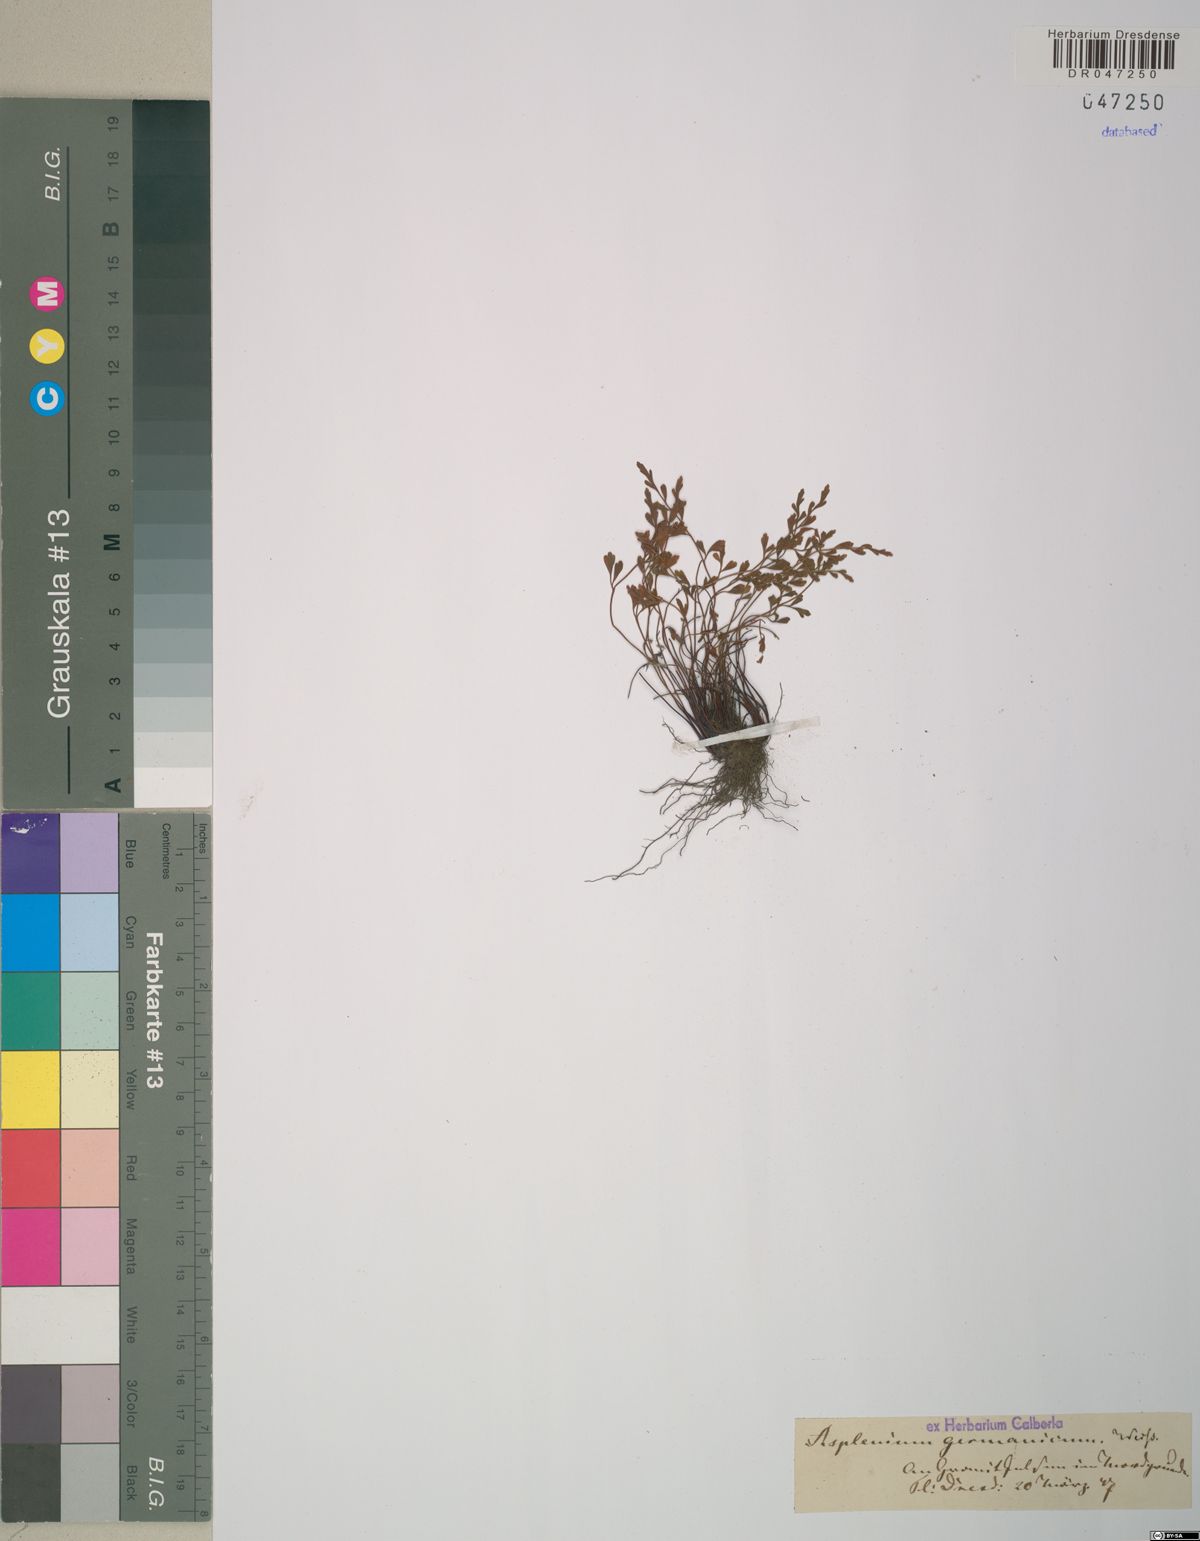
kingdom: Plantae
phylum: Tracheophyta
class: Polypodiopsida
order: Polypodiales
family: Aspleniaceae
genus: Asplenium
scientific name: Asplenium
